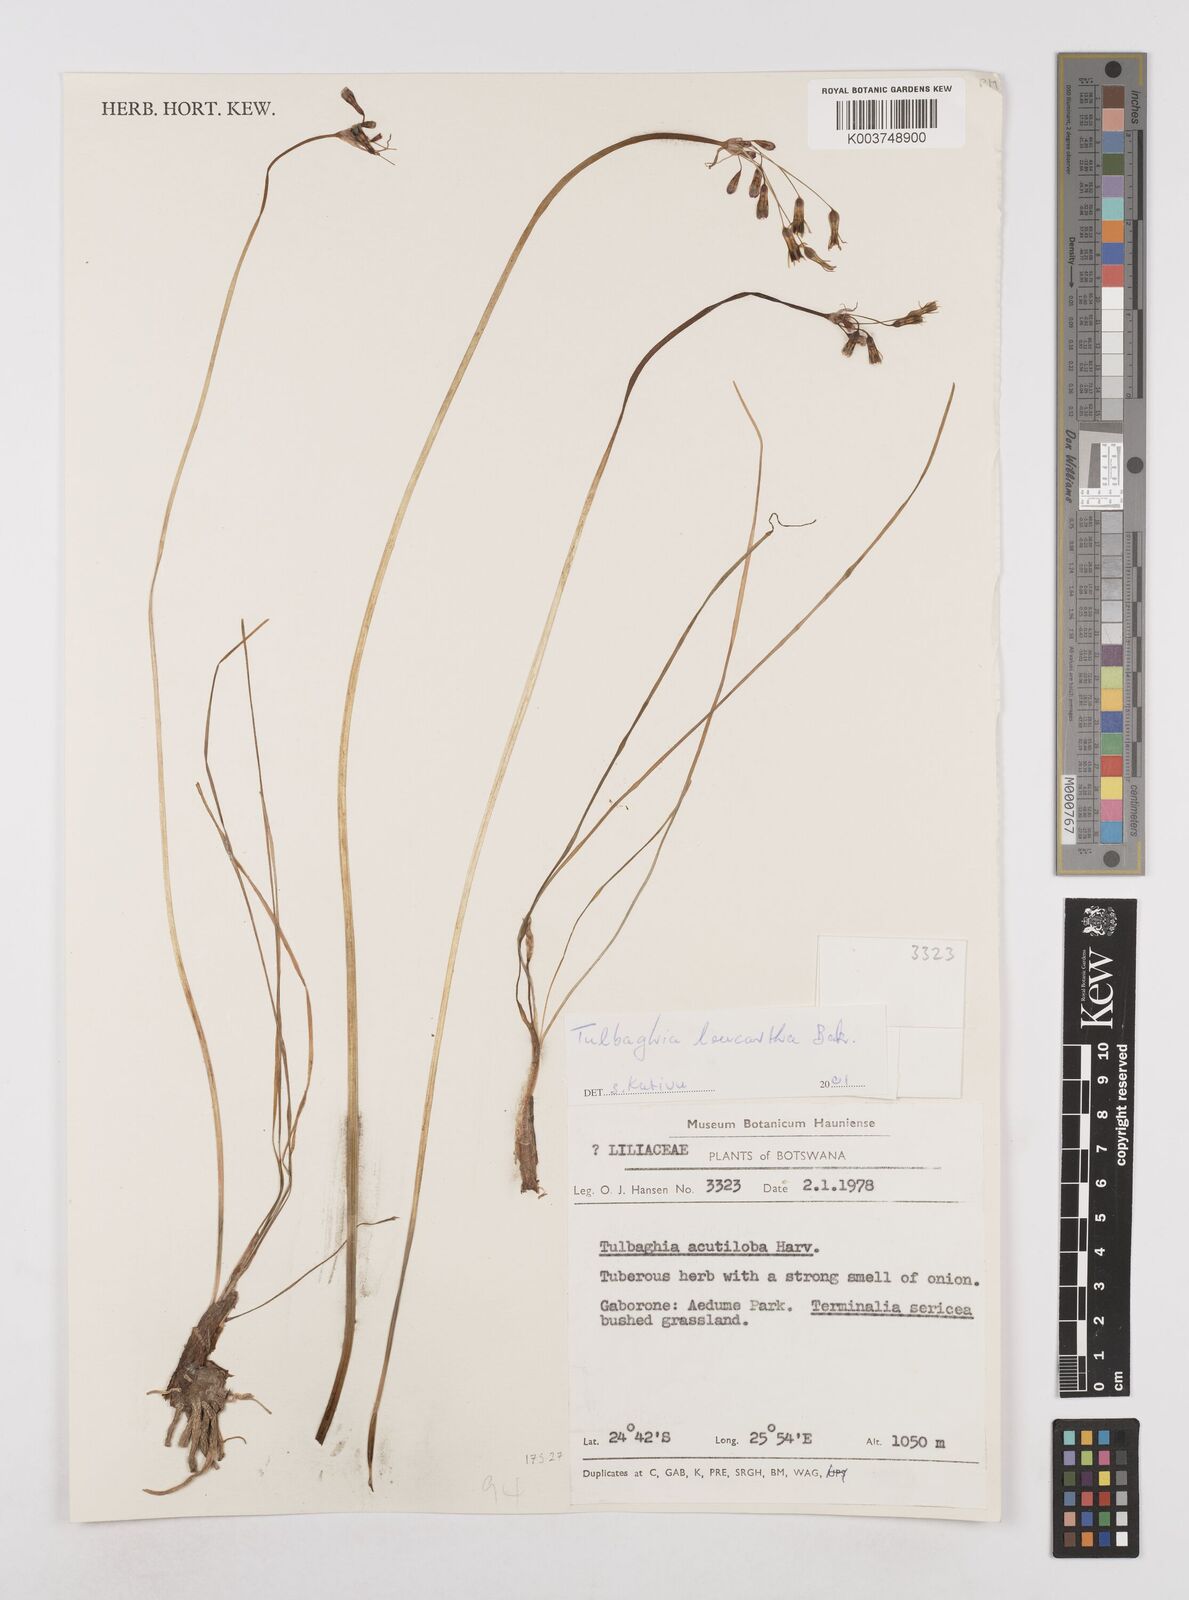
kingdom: Plantae
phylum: Tracheophyta
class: Liliopsida
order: Asparagales
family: Amaryllidaceae
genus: Tulbaghia
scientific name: Tulbaghia leucantha
